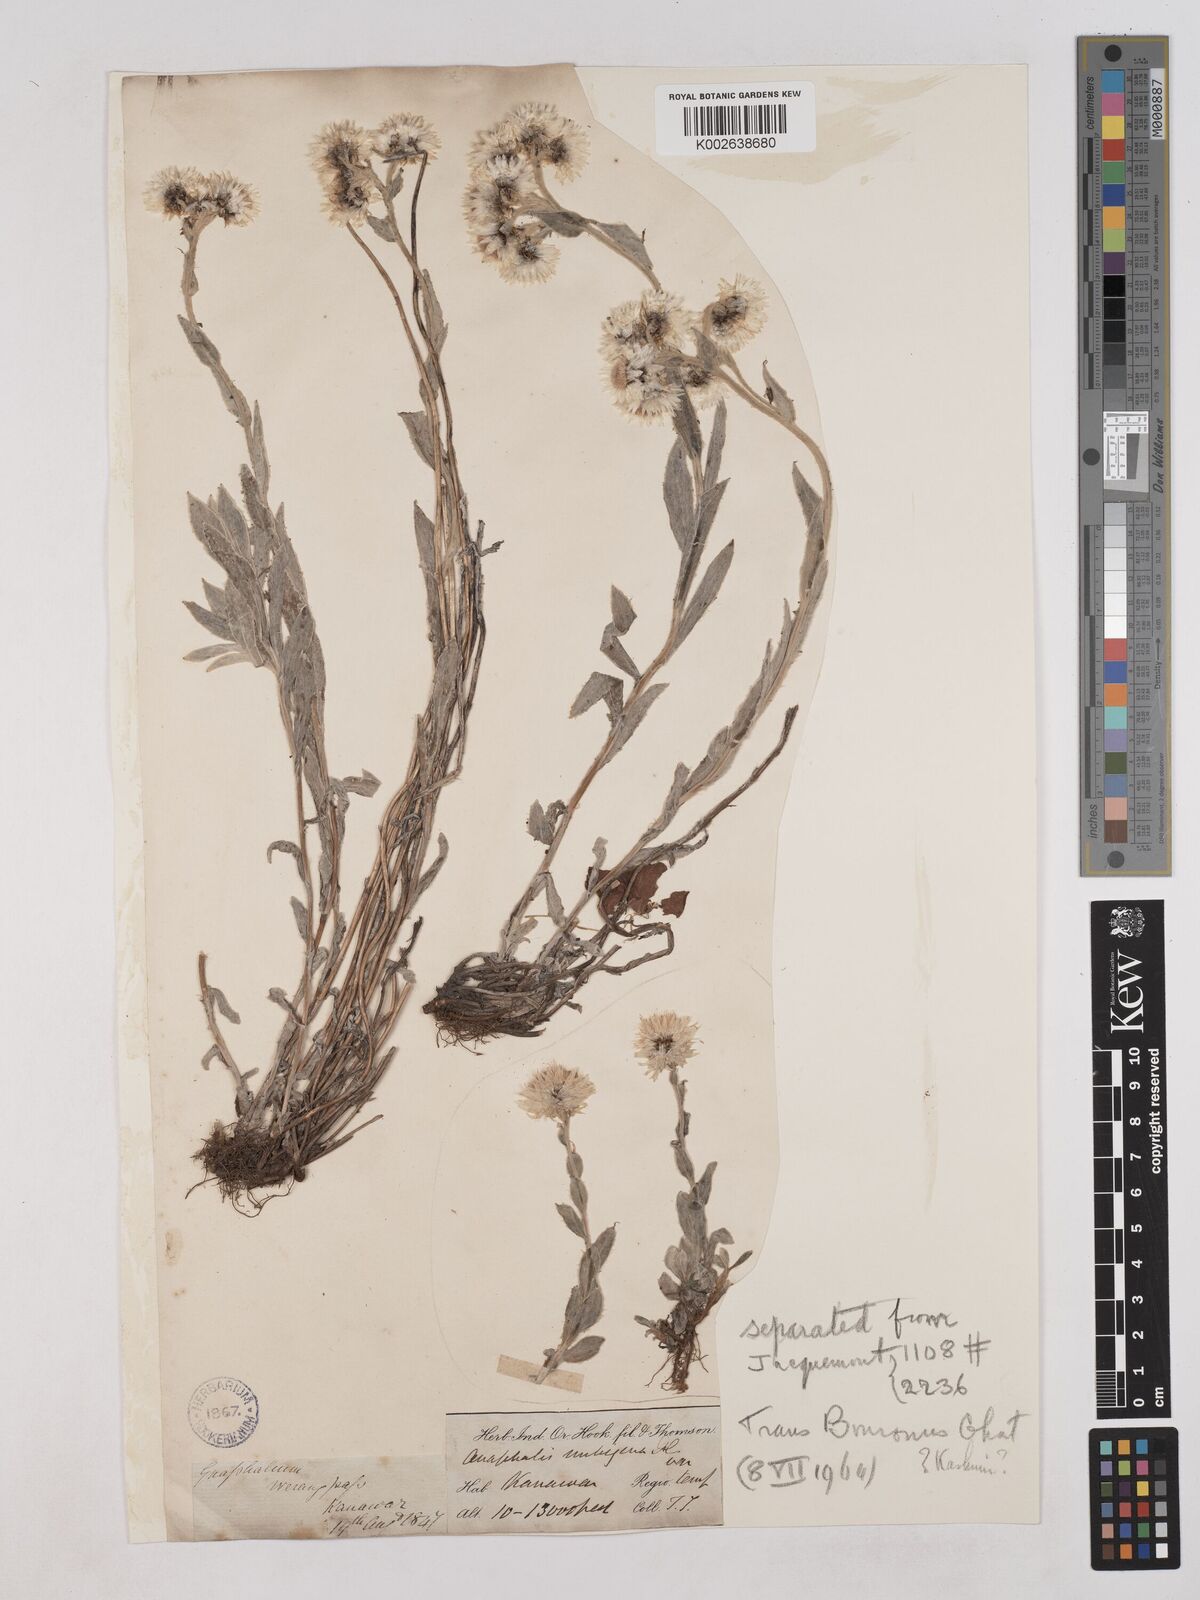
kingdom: Plantae
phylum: Tracheophyta
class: Magnoliopsida
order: Asterales
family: Asteraceae
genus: Anaphalioides
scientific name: Anaphalioides trinervis
